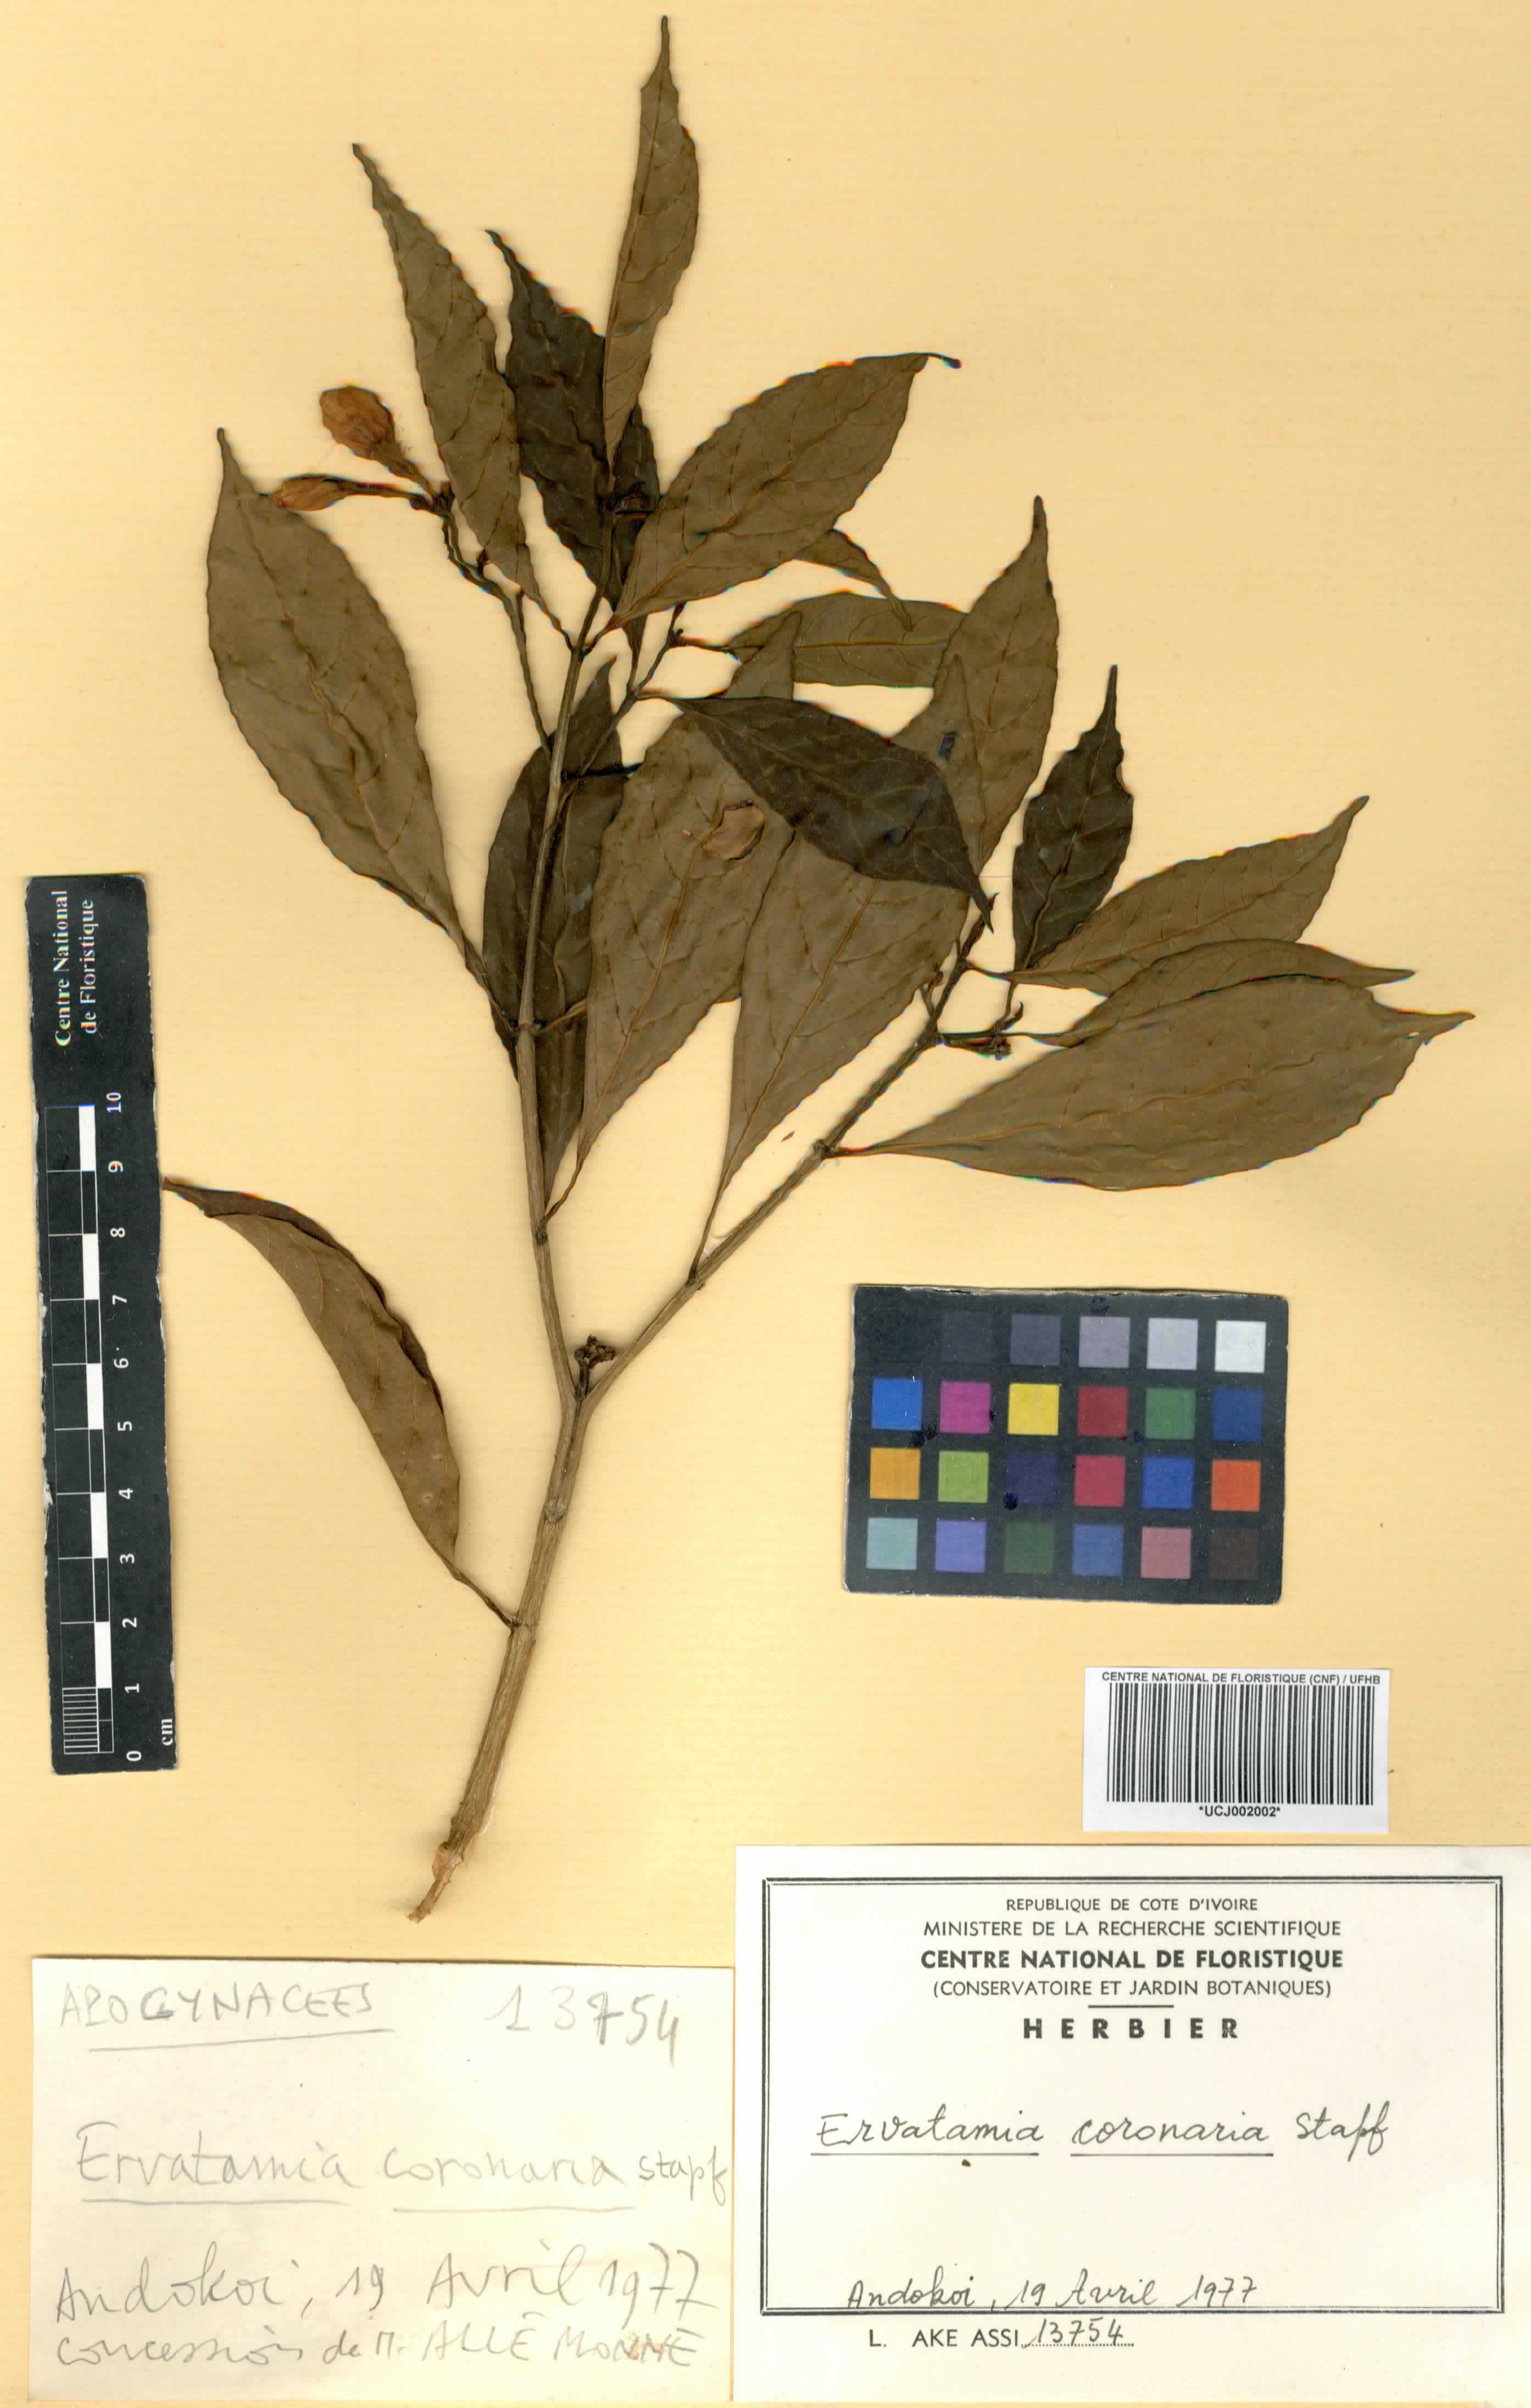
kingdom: Plantae
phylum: Tracheophyta
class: Magnoliopsida
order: Gentianales
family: Apocynaceae
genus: Tabernaemontana
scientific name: Tabernaemontana divaricata
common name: Pinwheelflower
